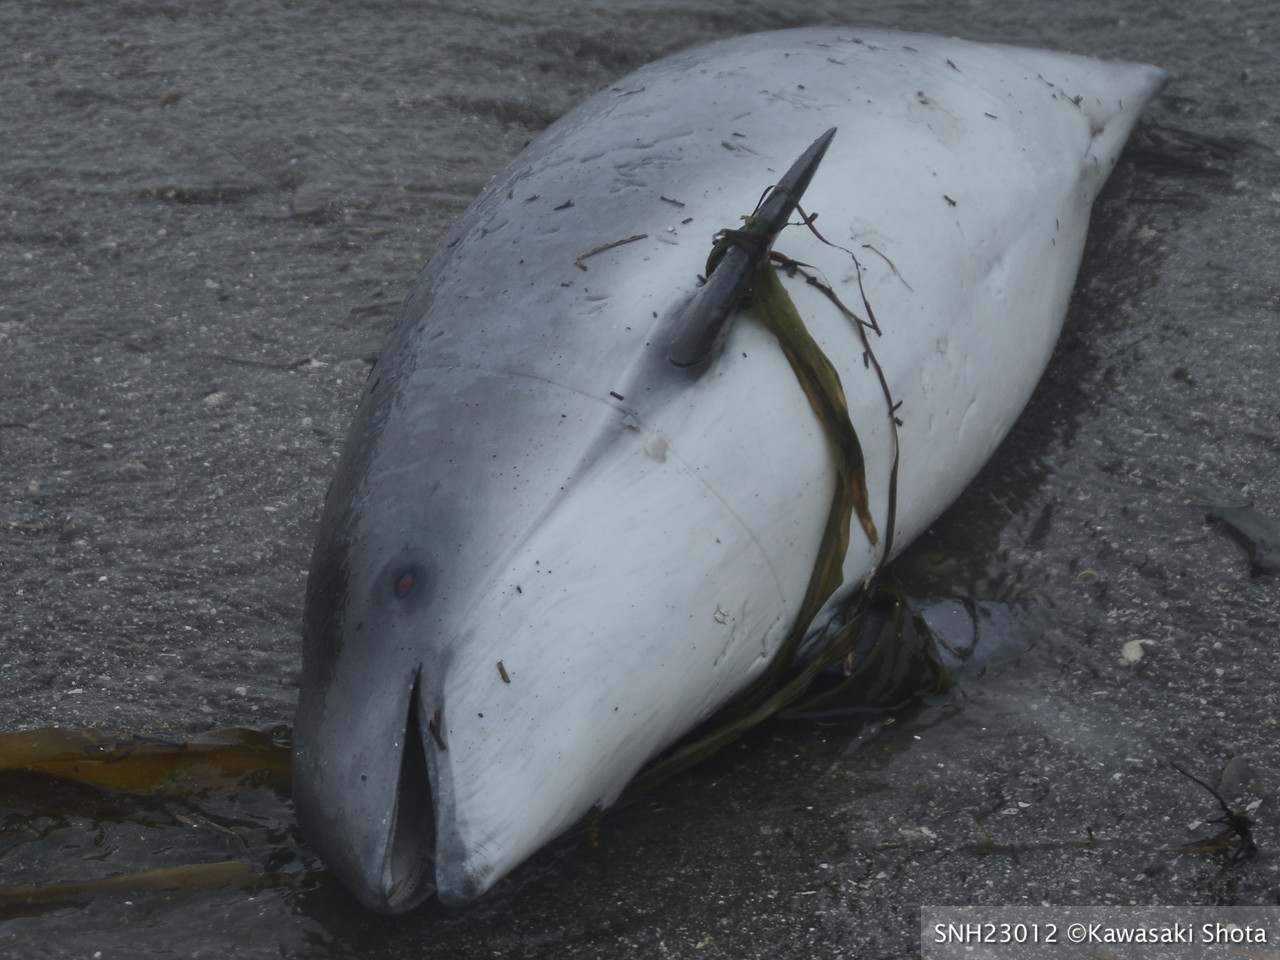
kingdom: Animalia
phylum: Chordata
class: Mammalia
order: Cetacea
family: Phocoenidae
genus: Phocoena
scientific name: Phocoena phocoena
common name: Harbour porpoise
